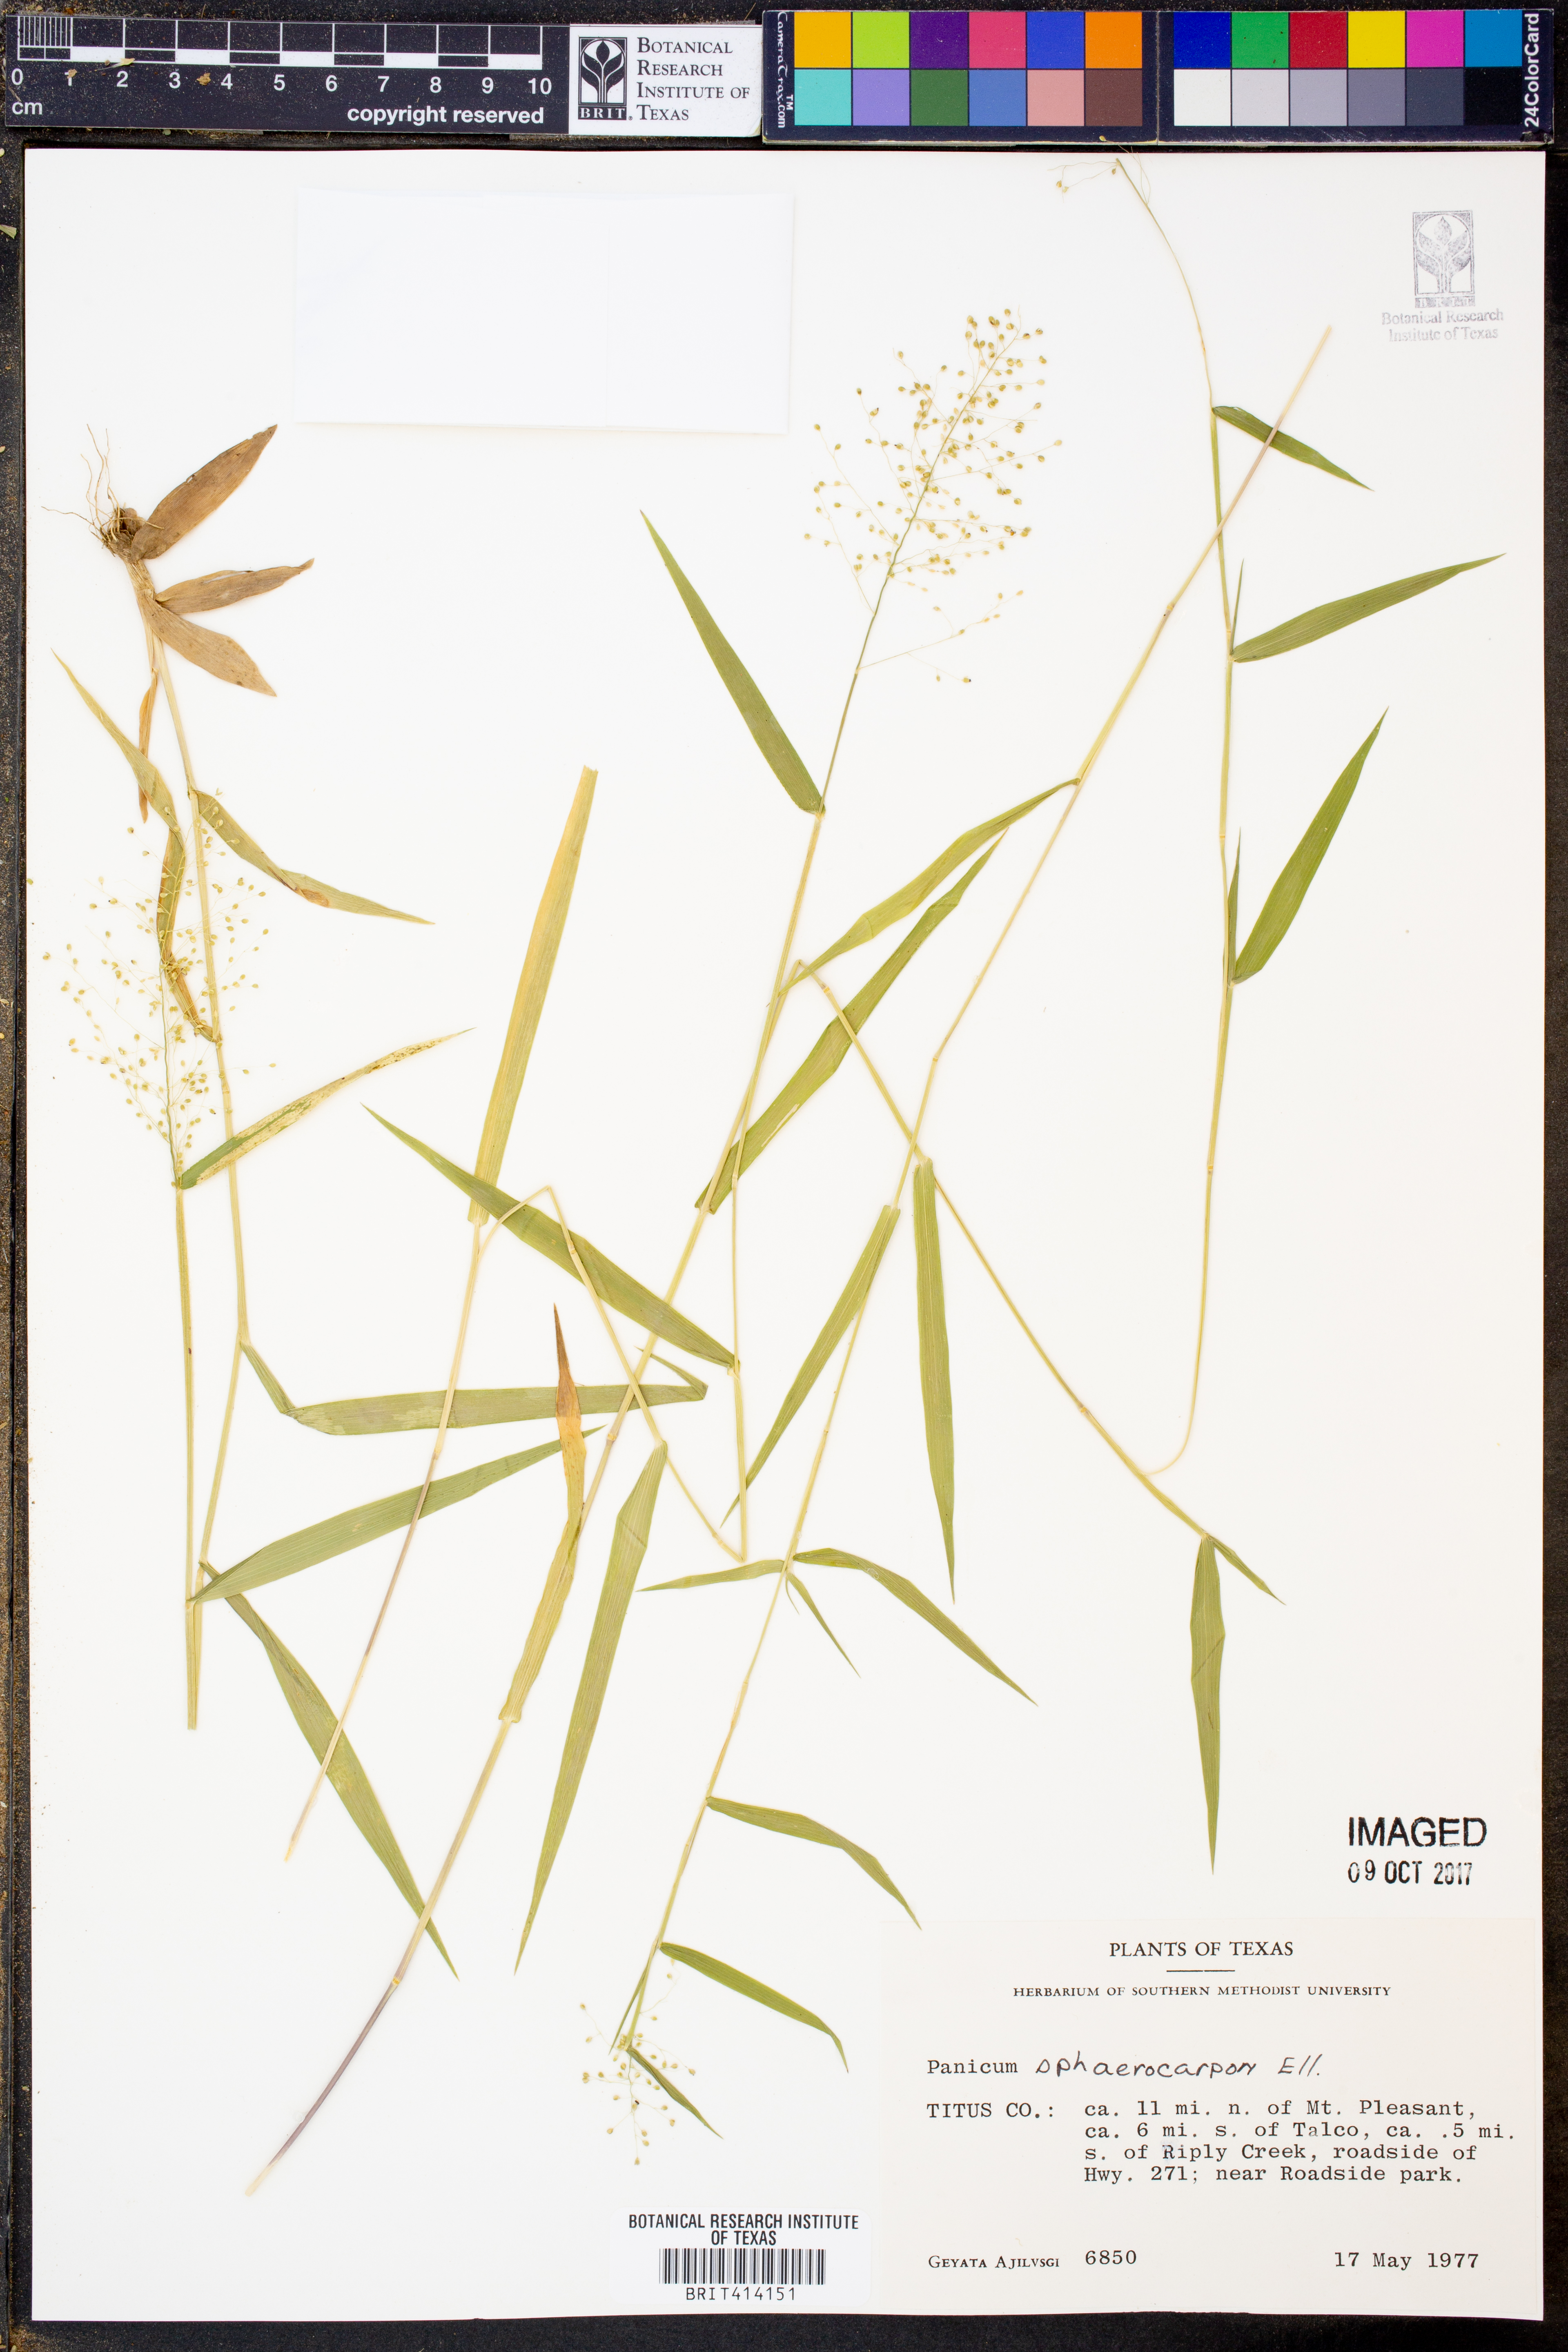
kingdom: Plantae
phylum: Tracheophyta
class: Liliopsida
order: Poales
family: Poaceae
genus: Dichanthelium
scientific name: Dichanthelium sphaerocarpon
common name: Round-fruited panicgrass
